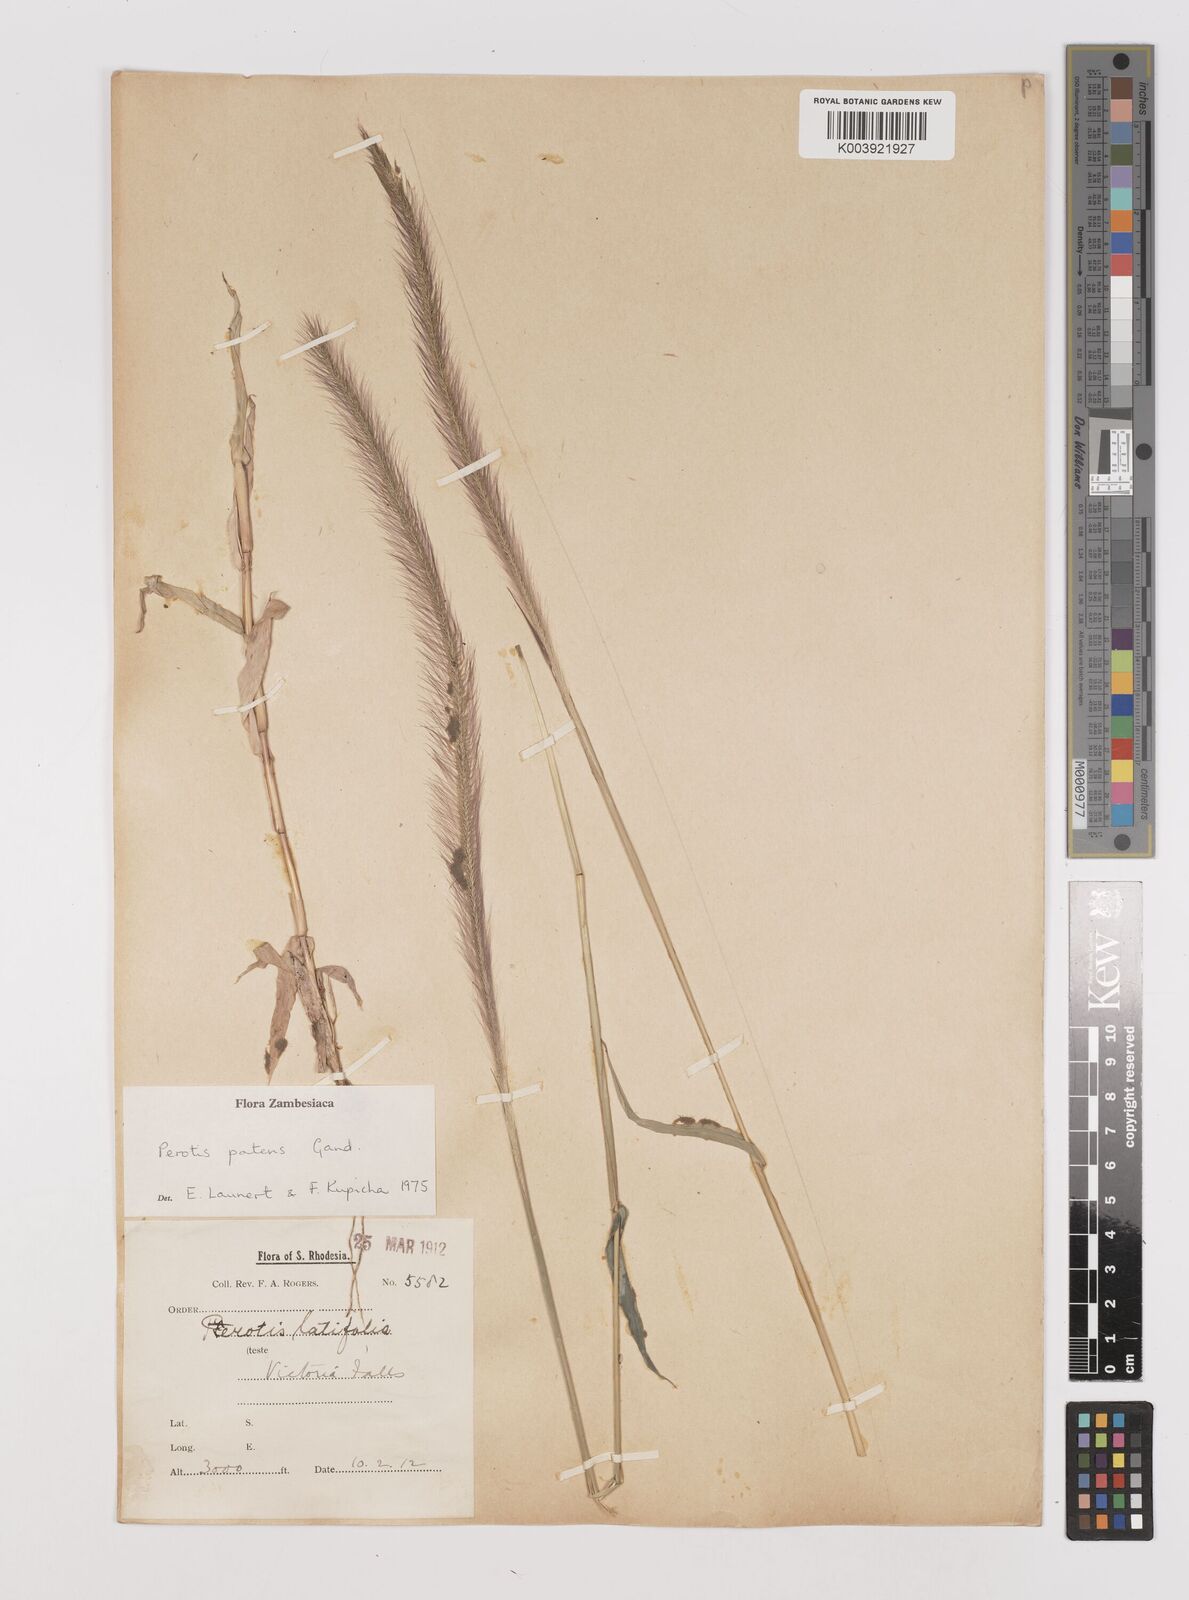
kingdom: Plantae
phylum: Tracheophyta
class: Liliopsida
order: Poales
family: Poaceae
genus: Perotis
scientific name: Perotis patens
